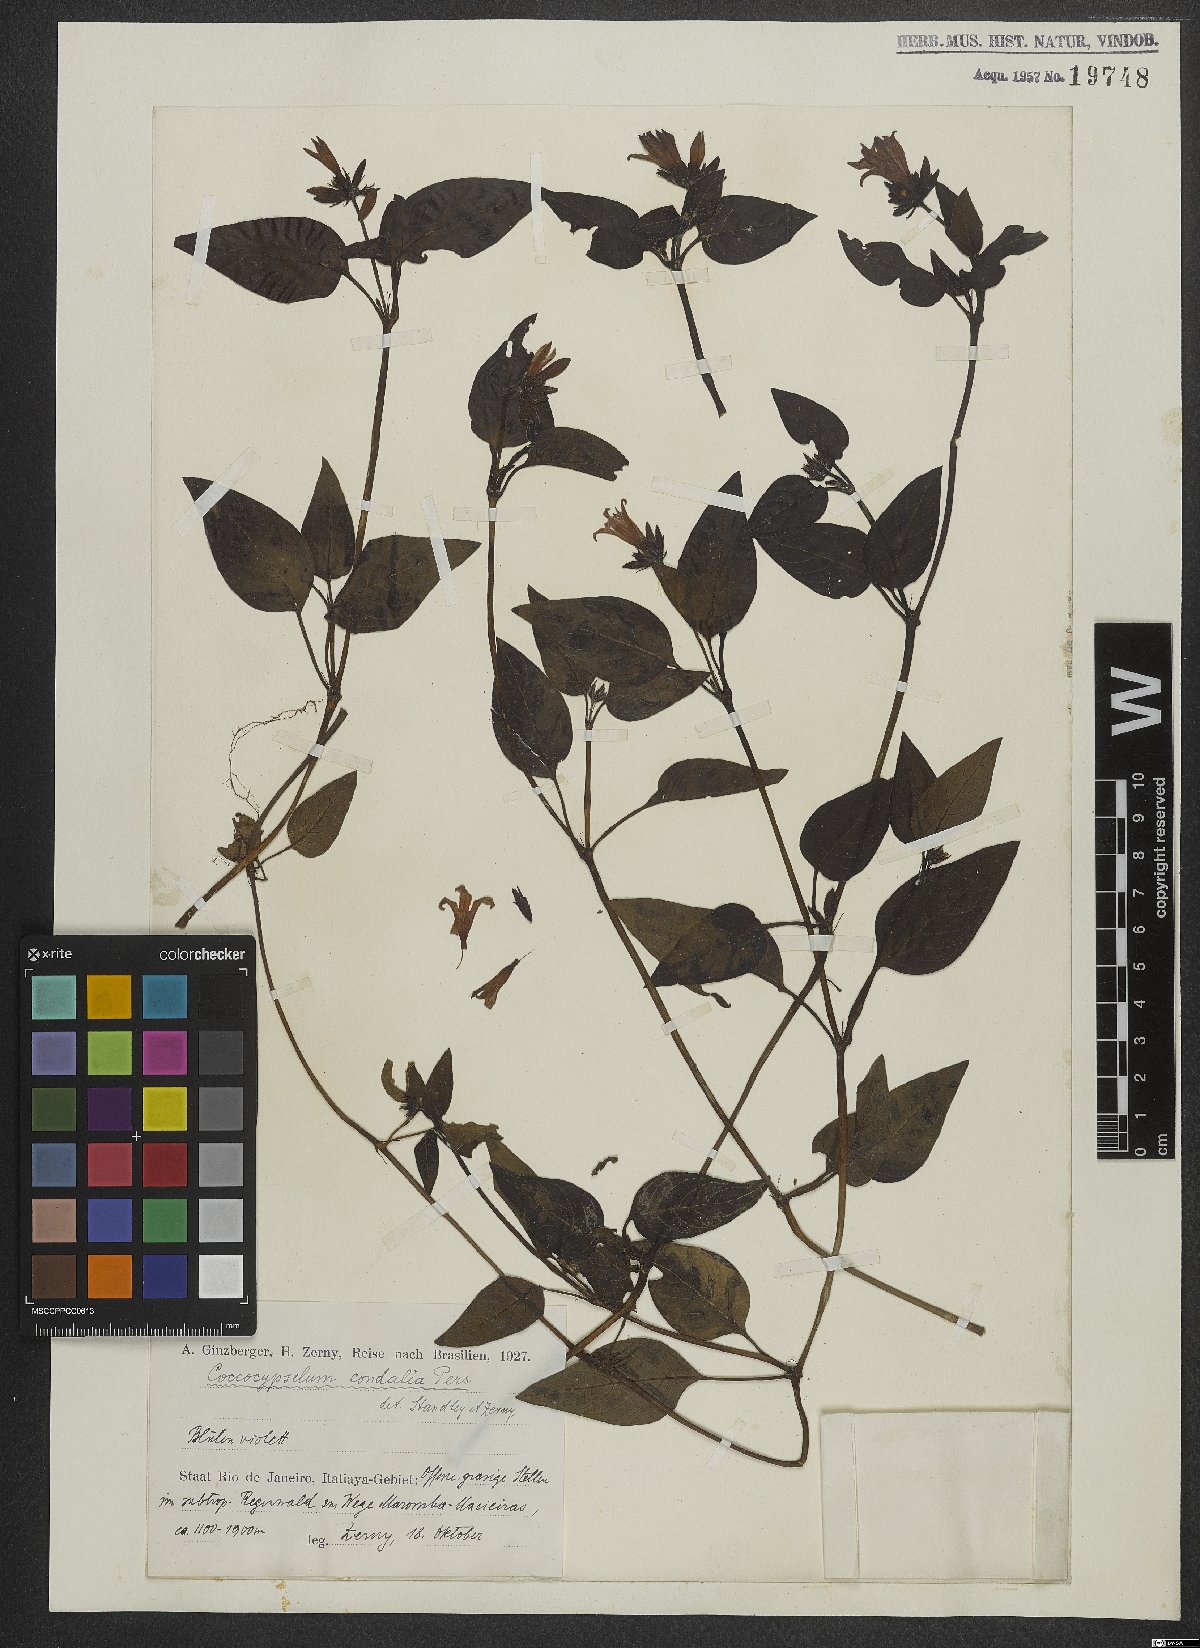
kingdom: Plantae
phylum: Tracheophyta
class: Magnoliopsida
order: Gentianales
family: Rubiaceae
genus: Coccocypselum
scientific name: Coccocypselum condalia
